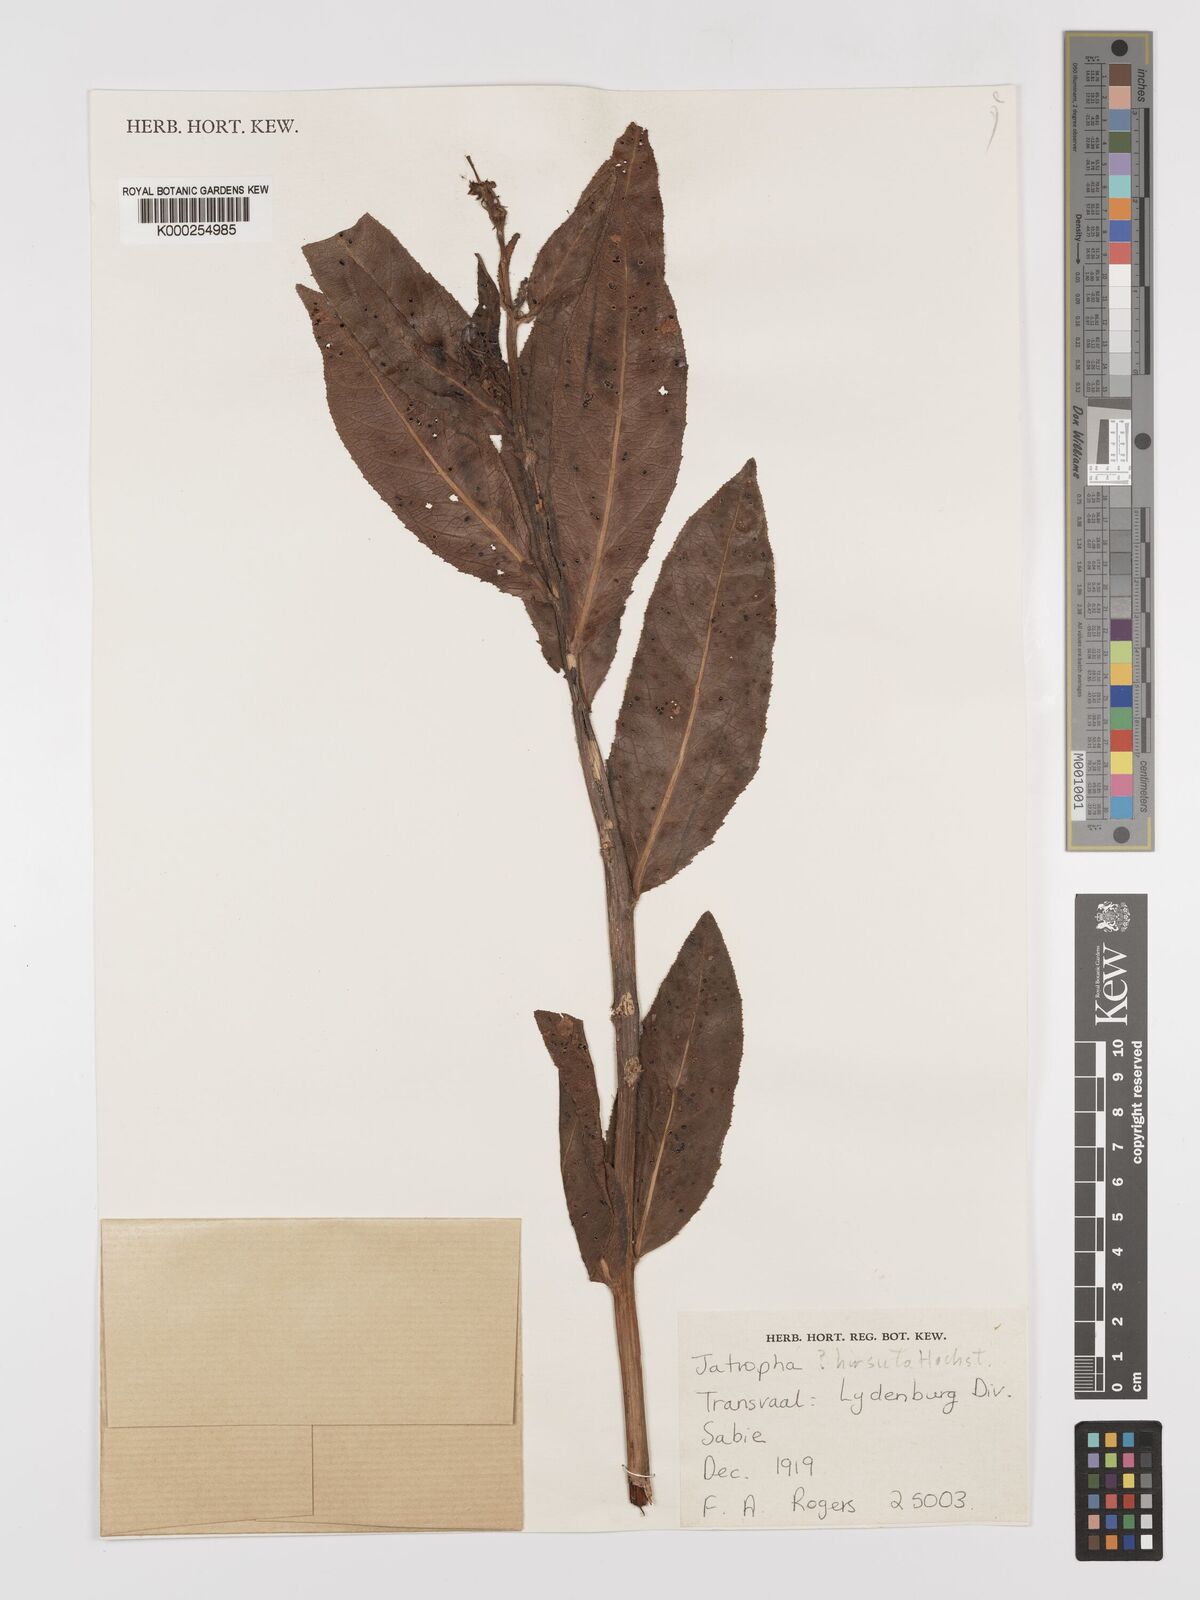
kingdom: Plantae
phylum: Tracheophyta
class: Magnoliopsida
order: Malpighiales
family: Euphorbiaceae
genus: Jatropha
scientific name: Jatropha hirsuta
